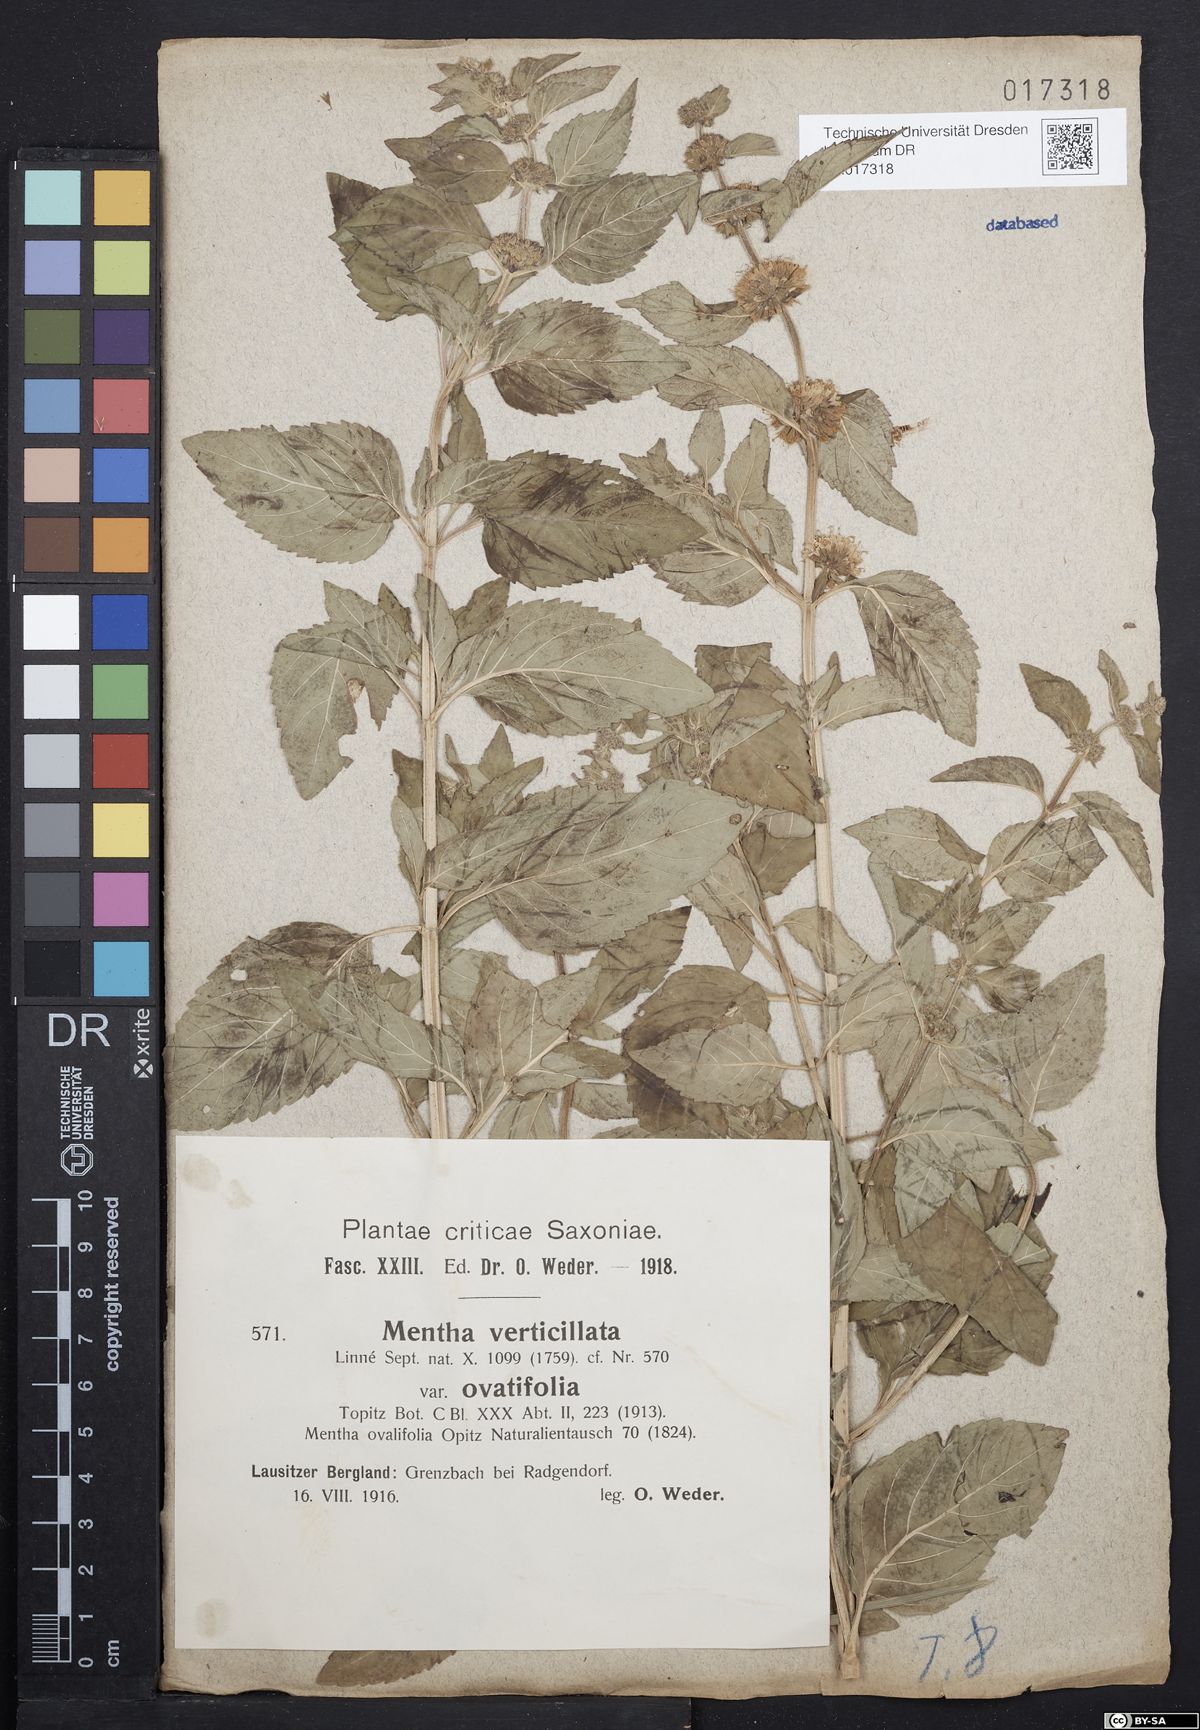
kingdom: Plantae
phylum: Tracheophyta
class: Magnoliopsida
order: Lamiales
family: Lamiaceae
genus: Mentha
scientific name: Mentha verticillata
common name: Mint
